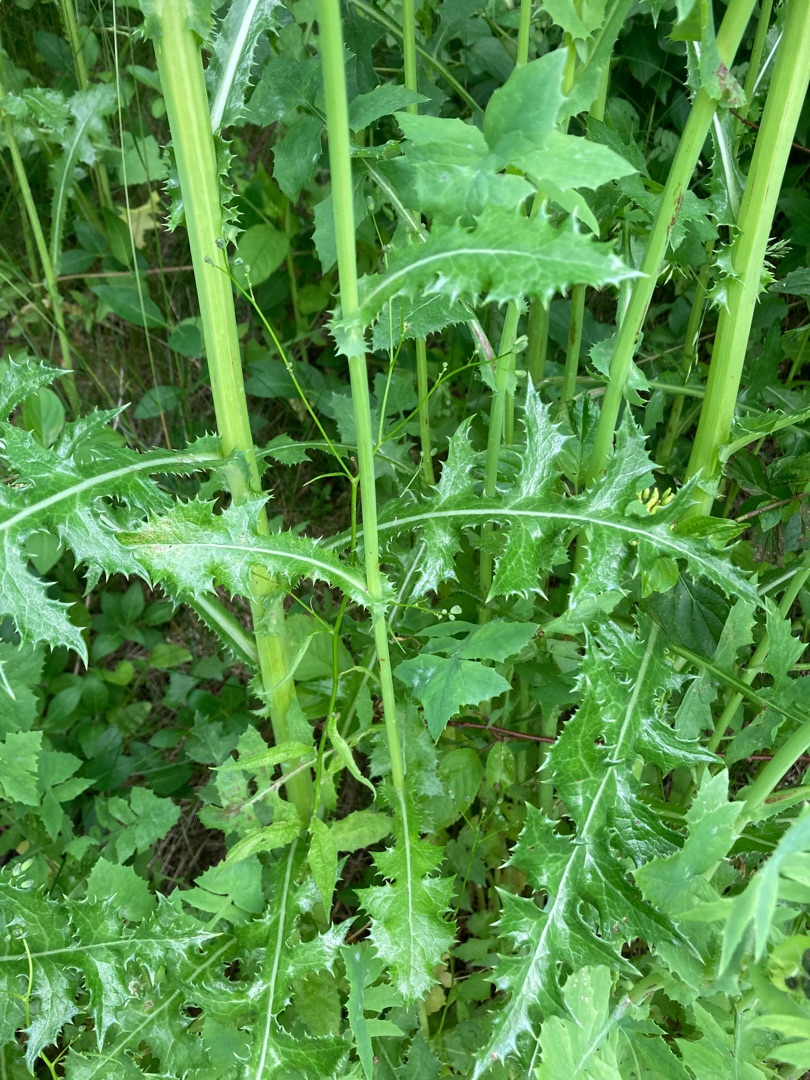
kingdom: Plantae
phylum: Tracheophyta
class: Magnoliopsida
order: Asterales
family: Asteraceae
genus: Sonchus
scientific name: Sonchus asper
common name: Ru svinemælk
